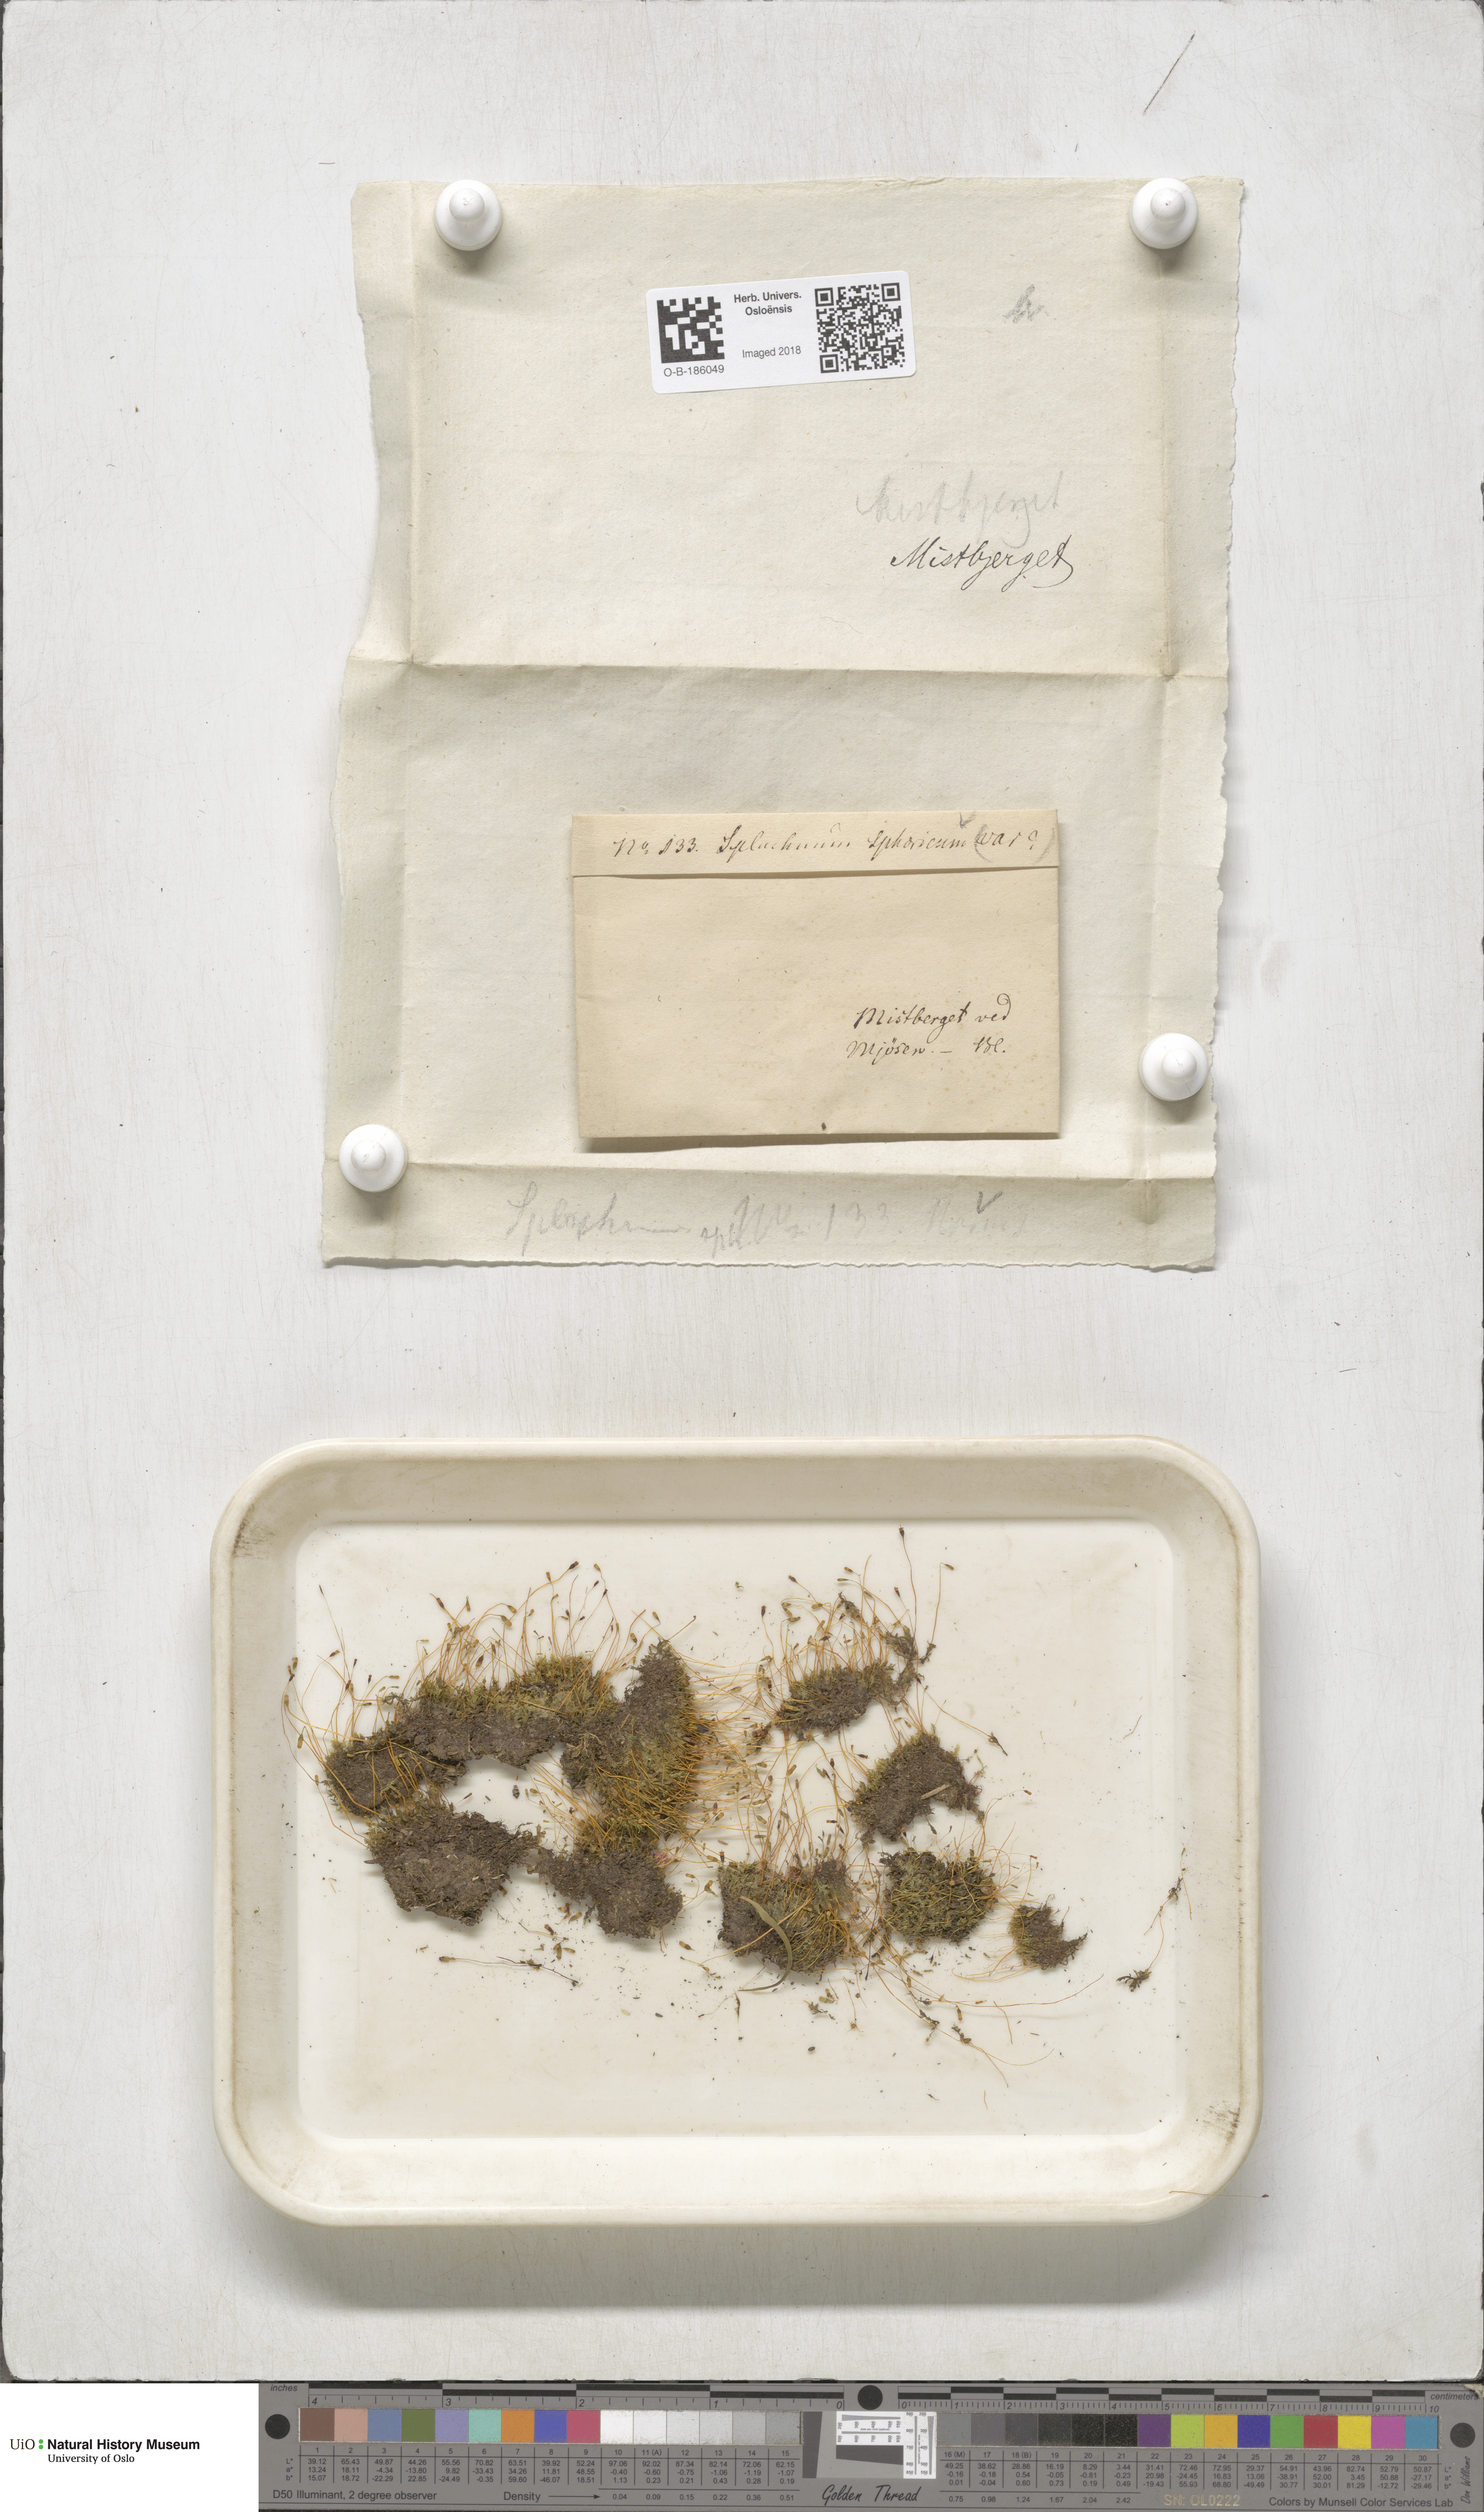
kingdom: Plantae
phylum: Bryophyta
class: Bryopsida
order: Splachnales
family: Splachnaceae
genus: Splachnum
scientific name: Splachnum sphaericum
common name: Round-fruited dung moss
